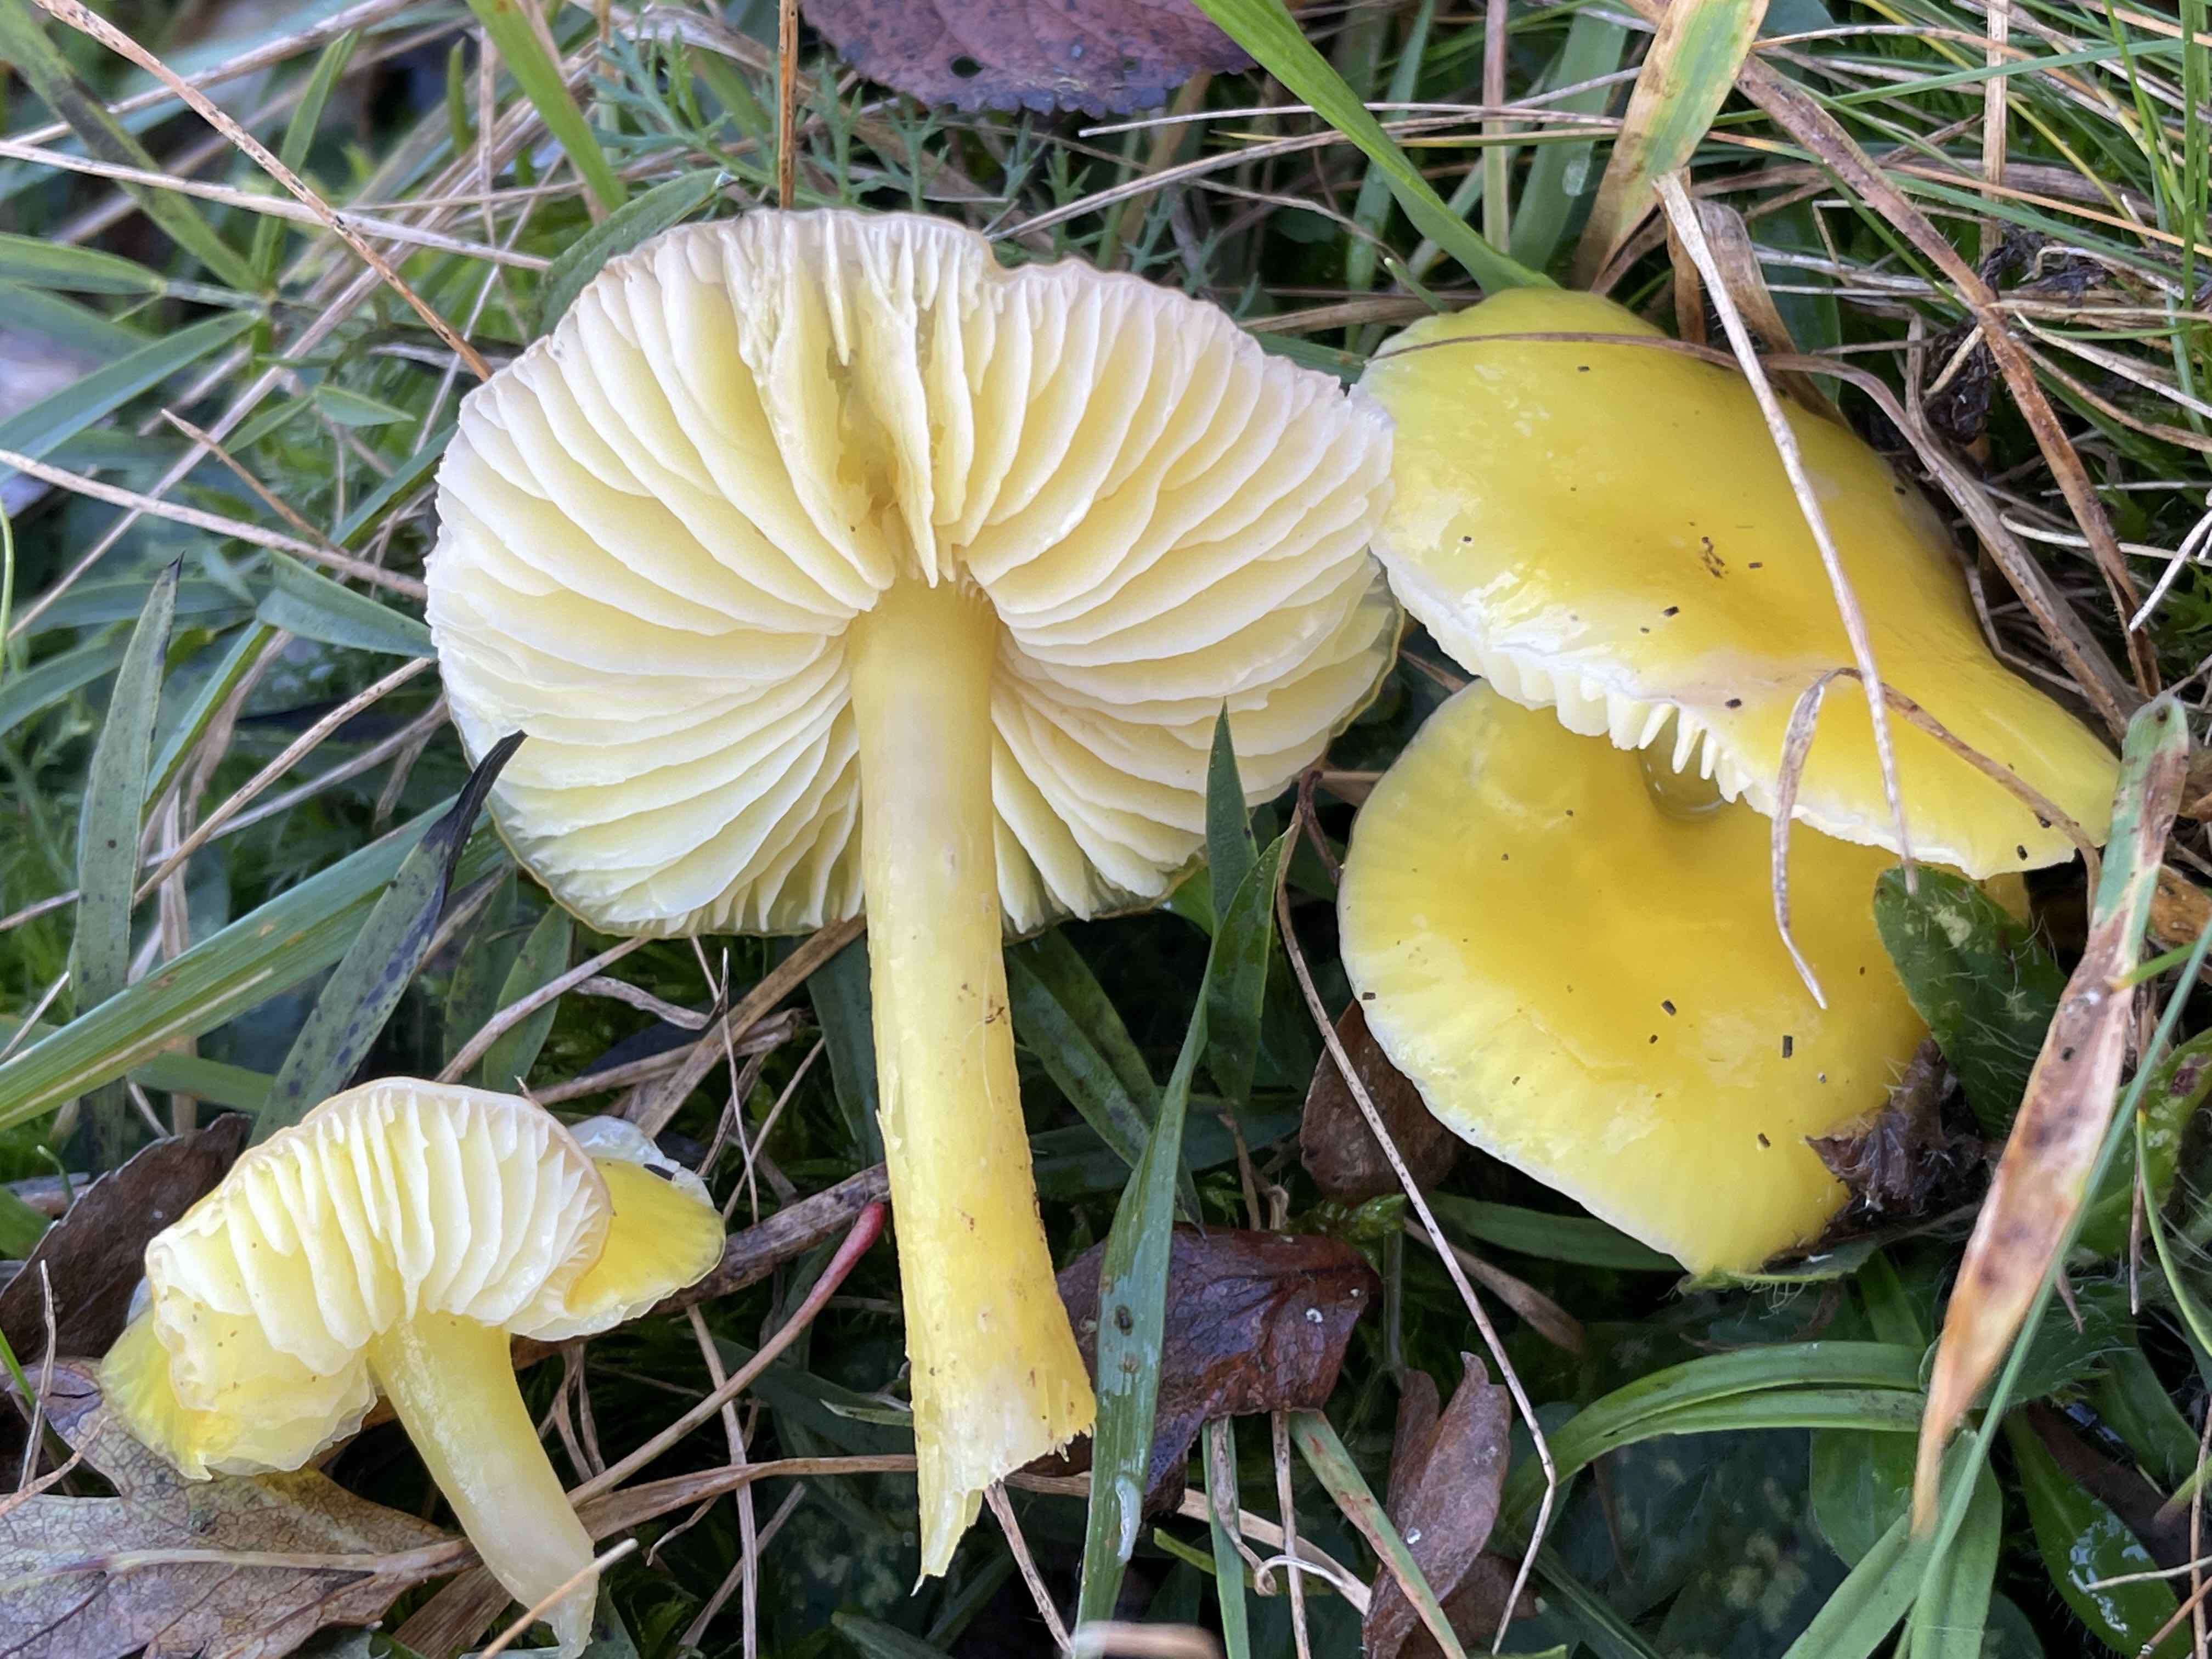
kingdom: Fungi
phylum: Basidiomycota
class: Agaricomycetes
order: Agaricales
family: Hygrophoraceae
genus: Hygrocybe
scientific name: Hygrocybe chlorophana
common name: gul vokshat
